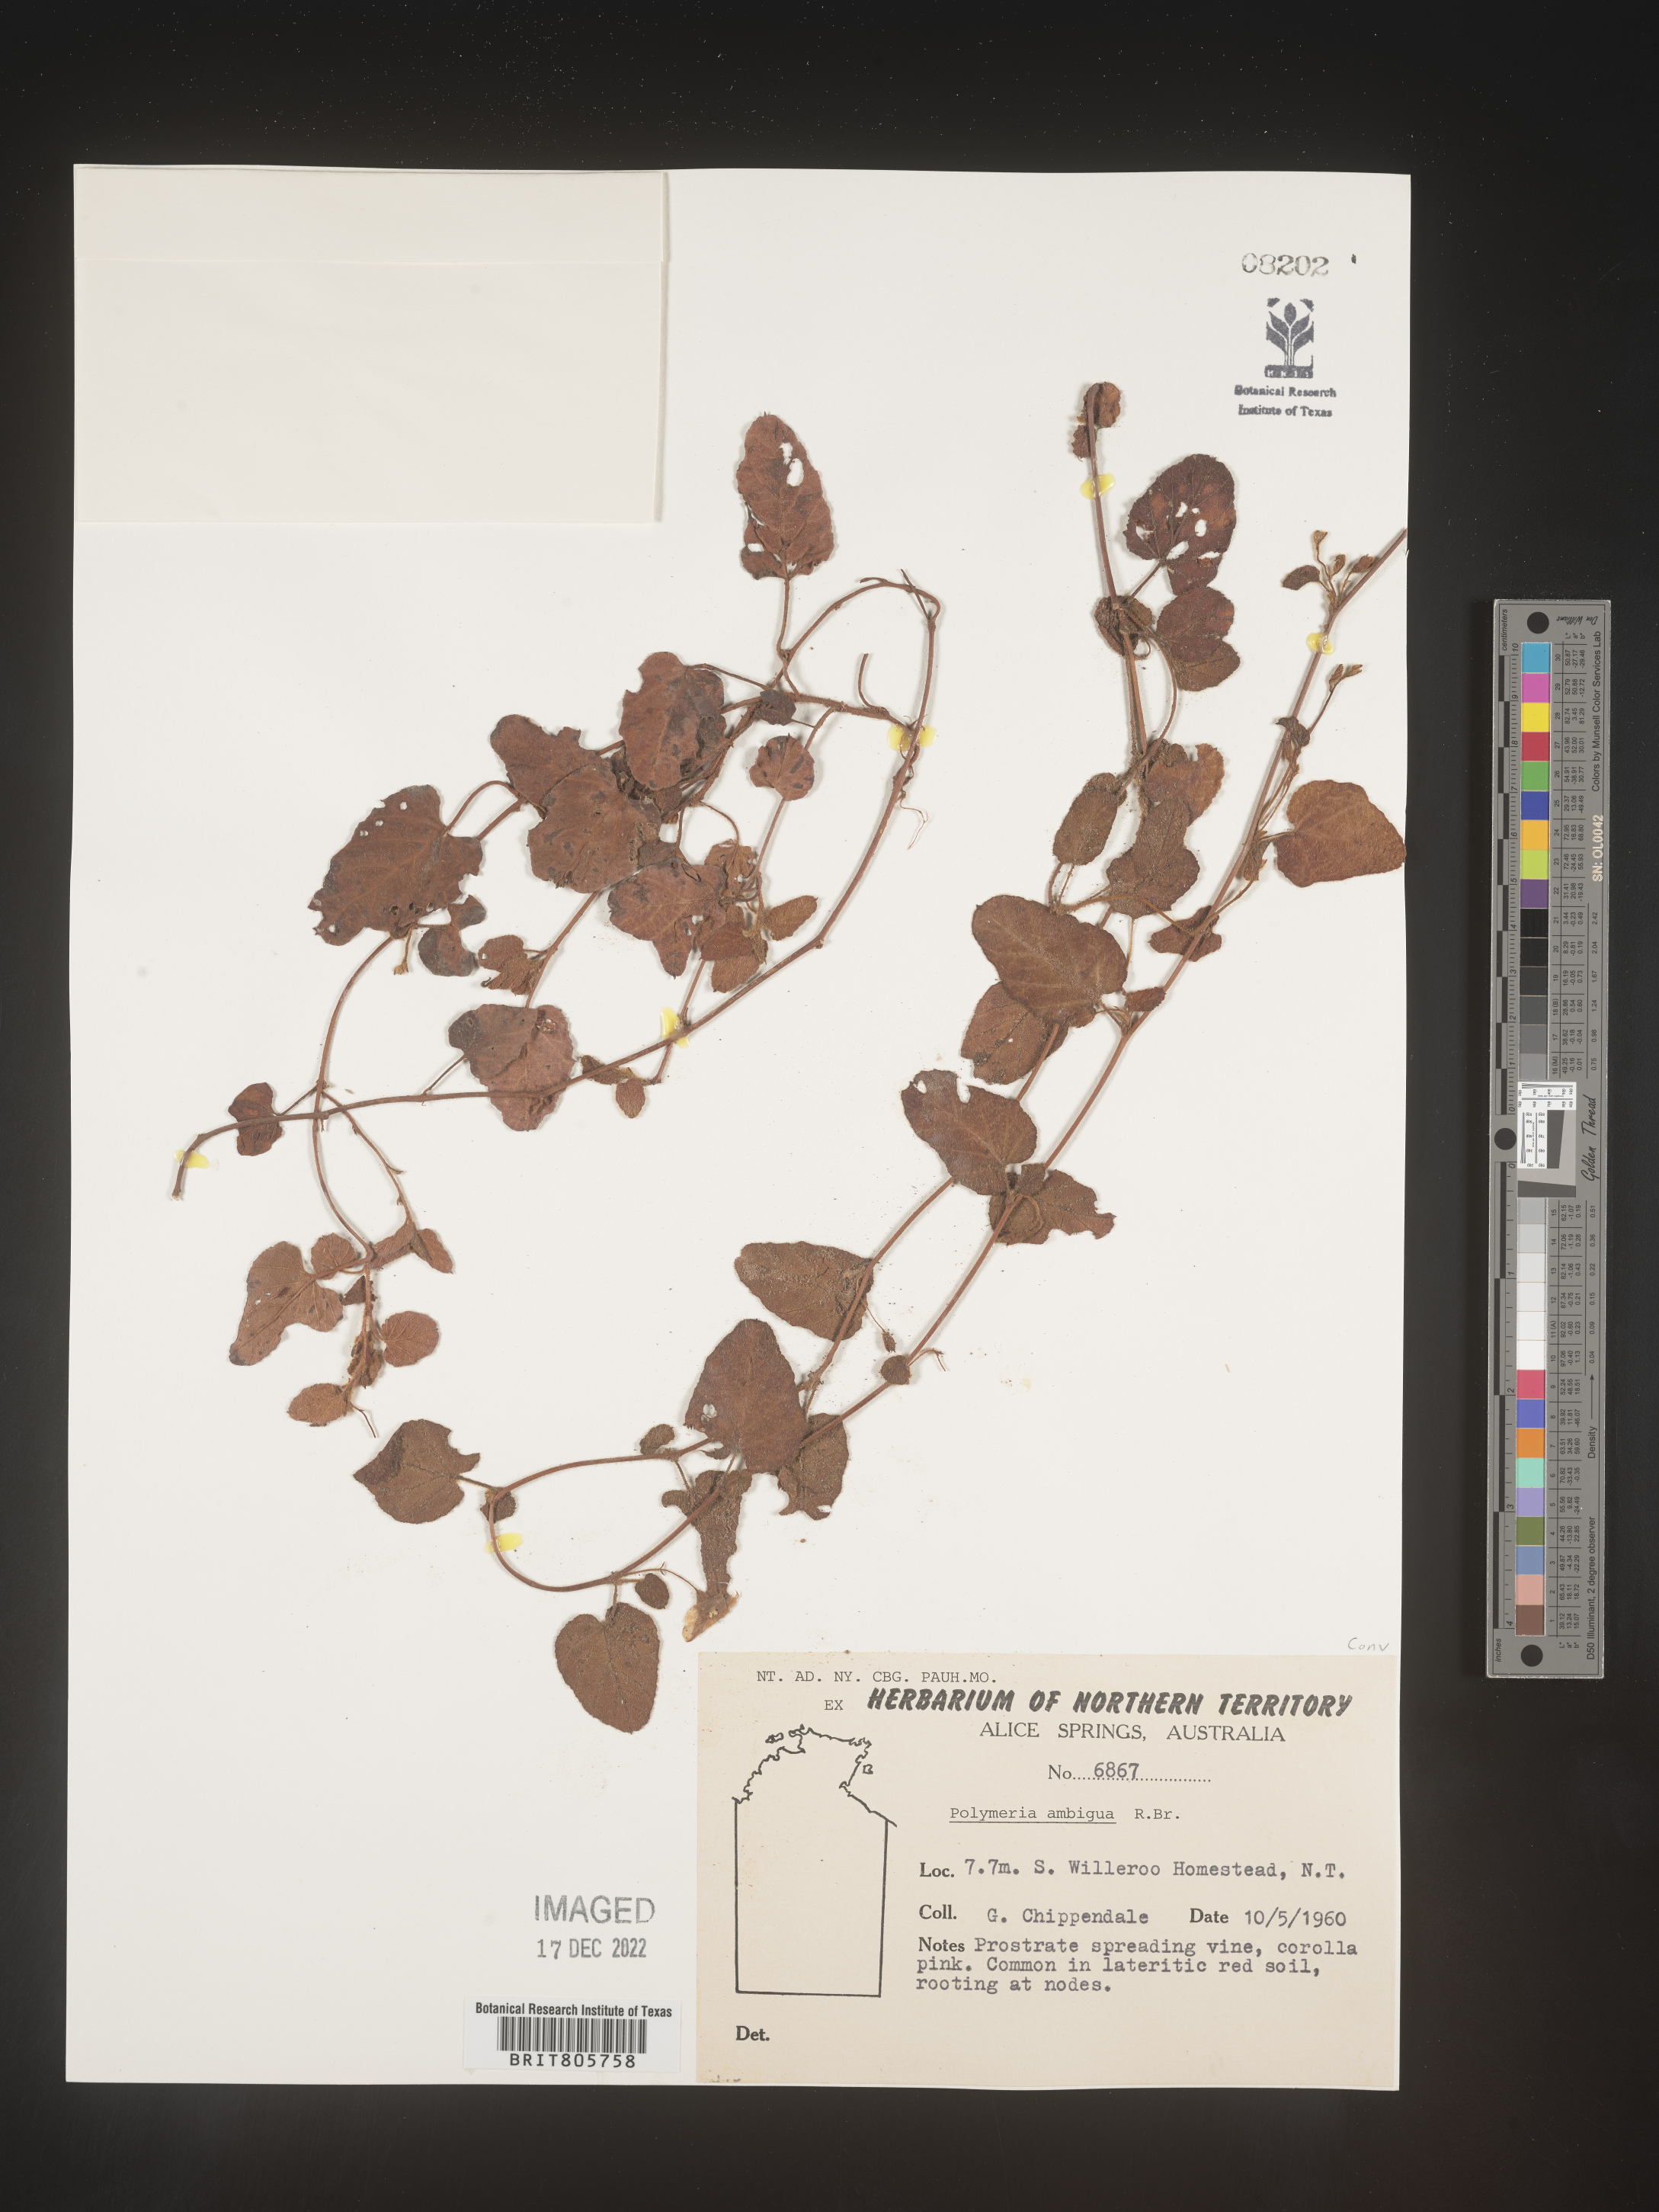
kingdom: Plantae
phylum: Tracheophyta
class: Magnoliopsida
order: Solanales
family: Convolvulaceae
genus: Polymeria
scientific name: Polymeria
